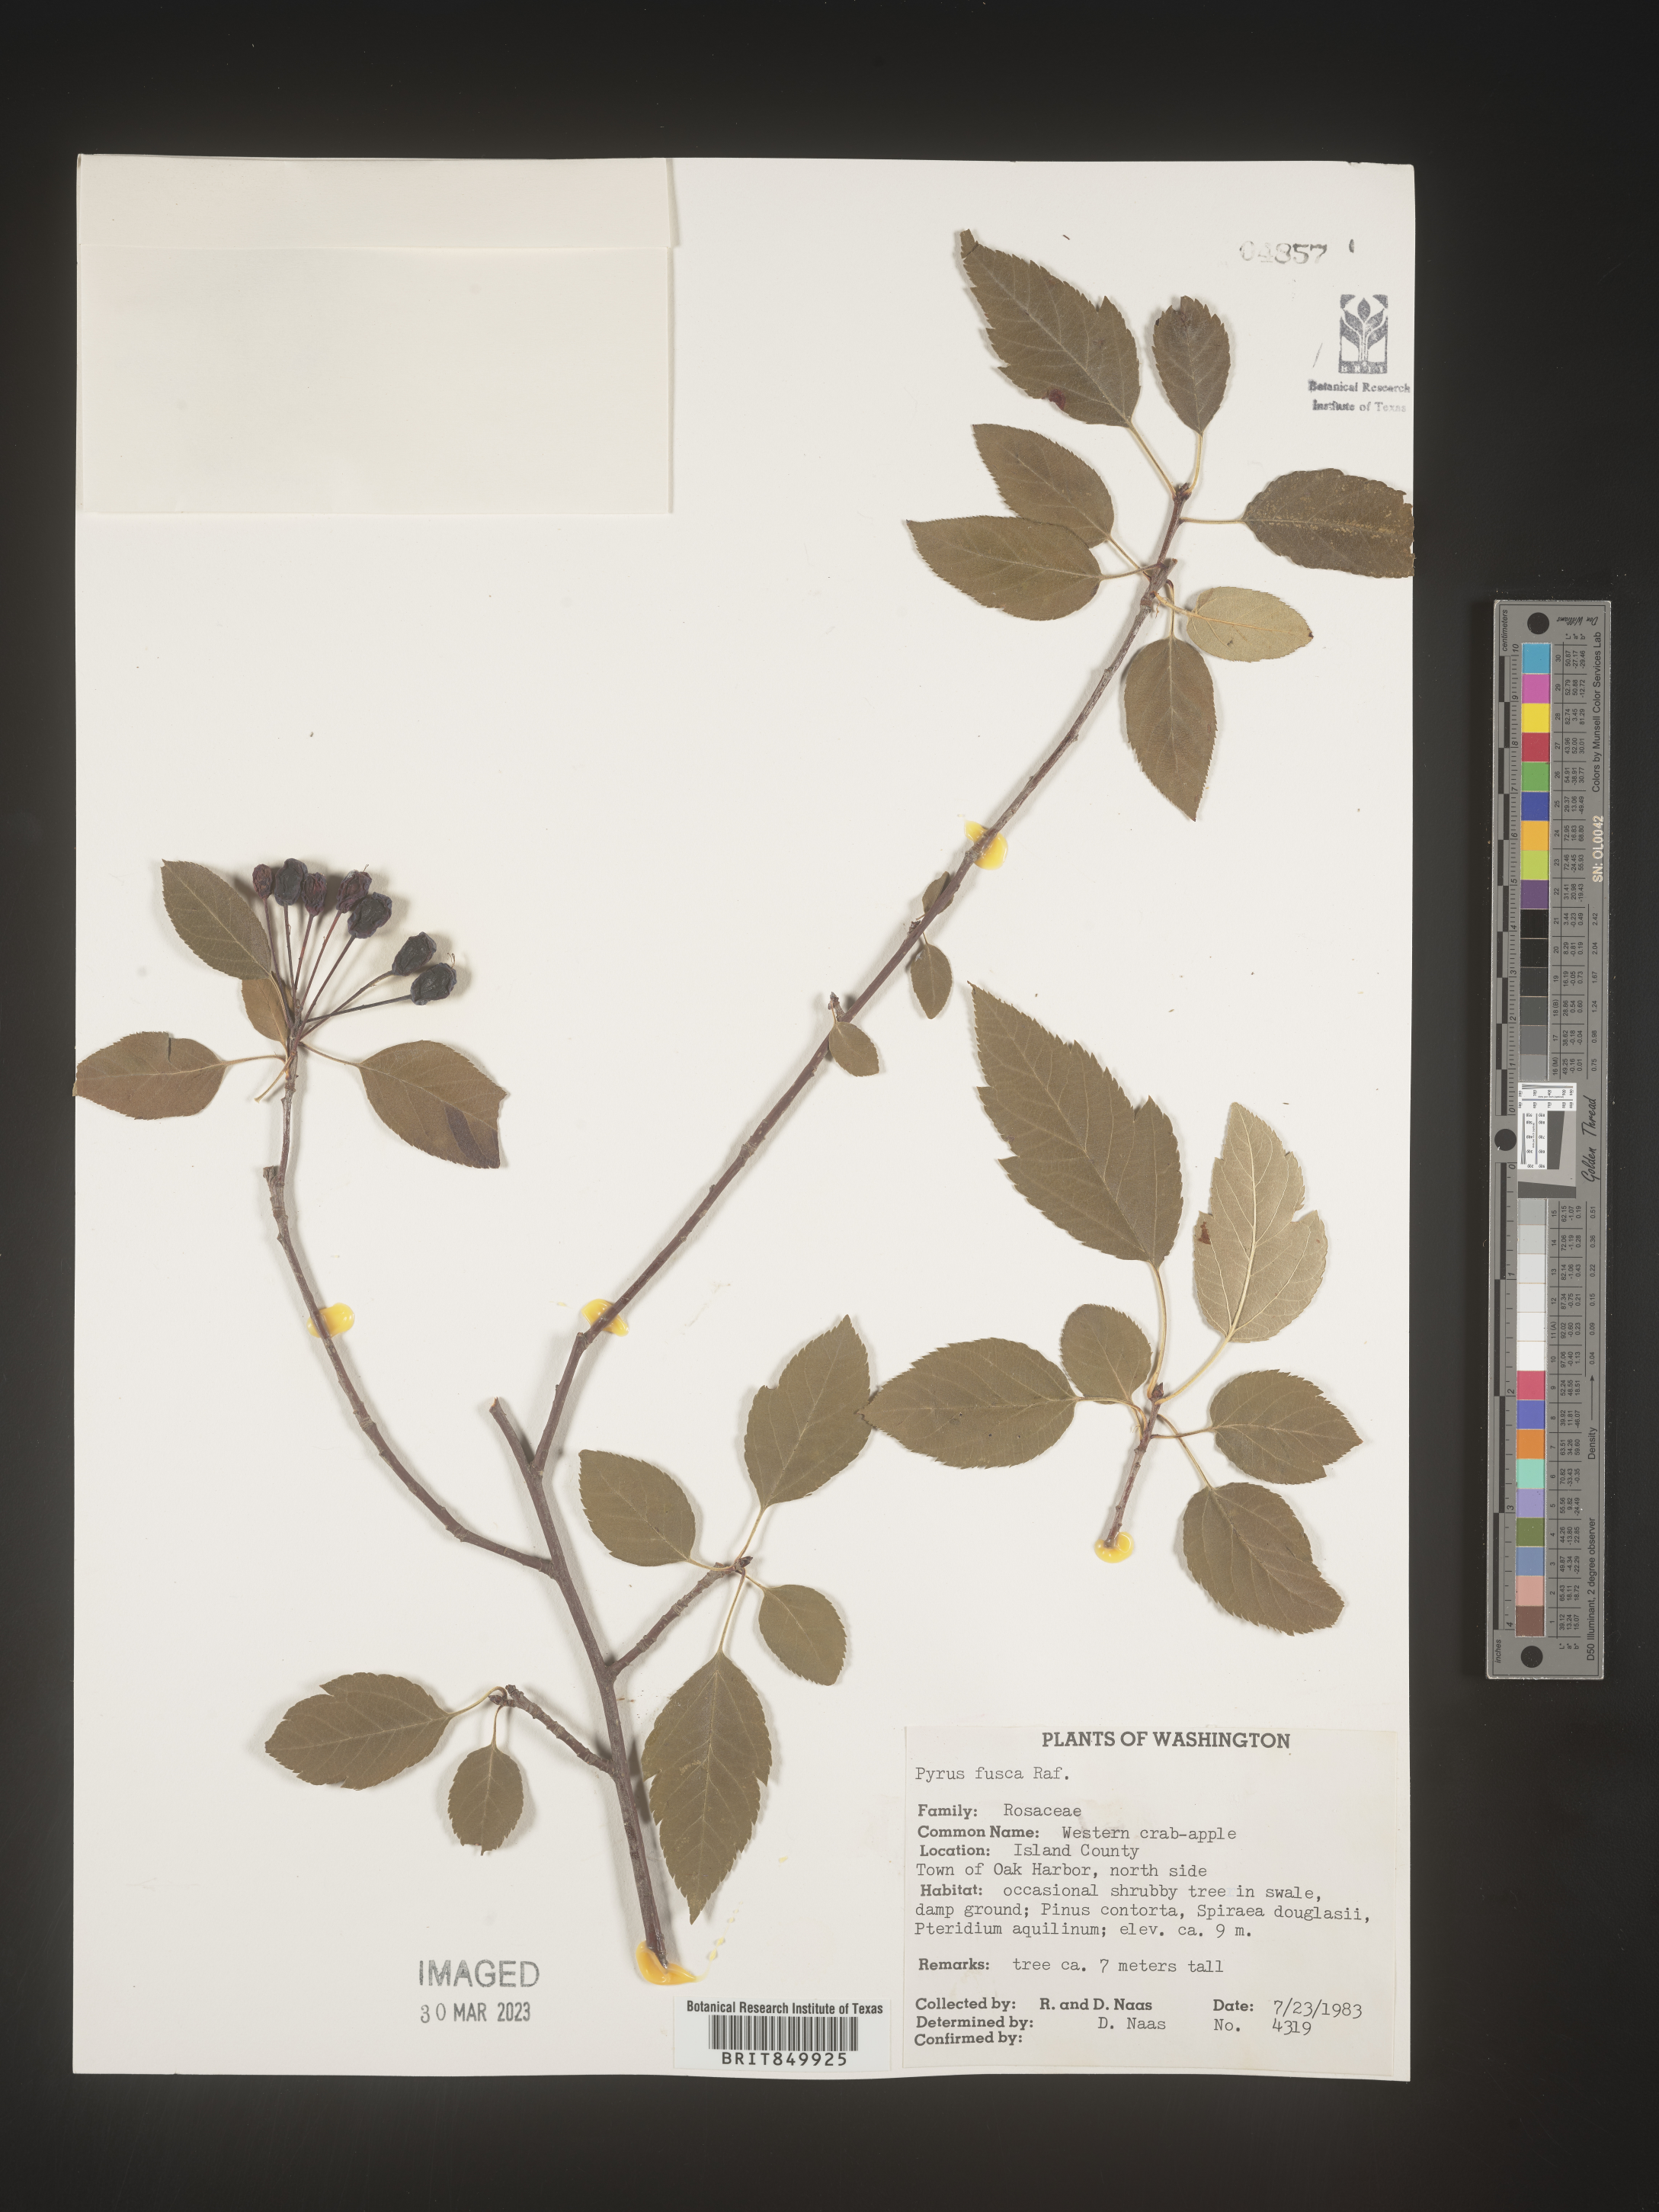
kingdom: Plantae
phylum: Tracheophyta
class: Magnoliopsida
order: Rosales
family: Rosaceae
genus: Pyrus
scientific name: Pyrus
